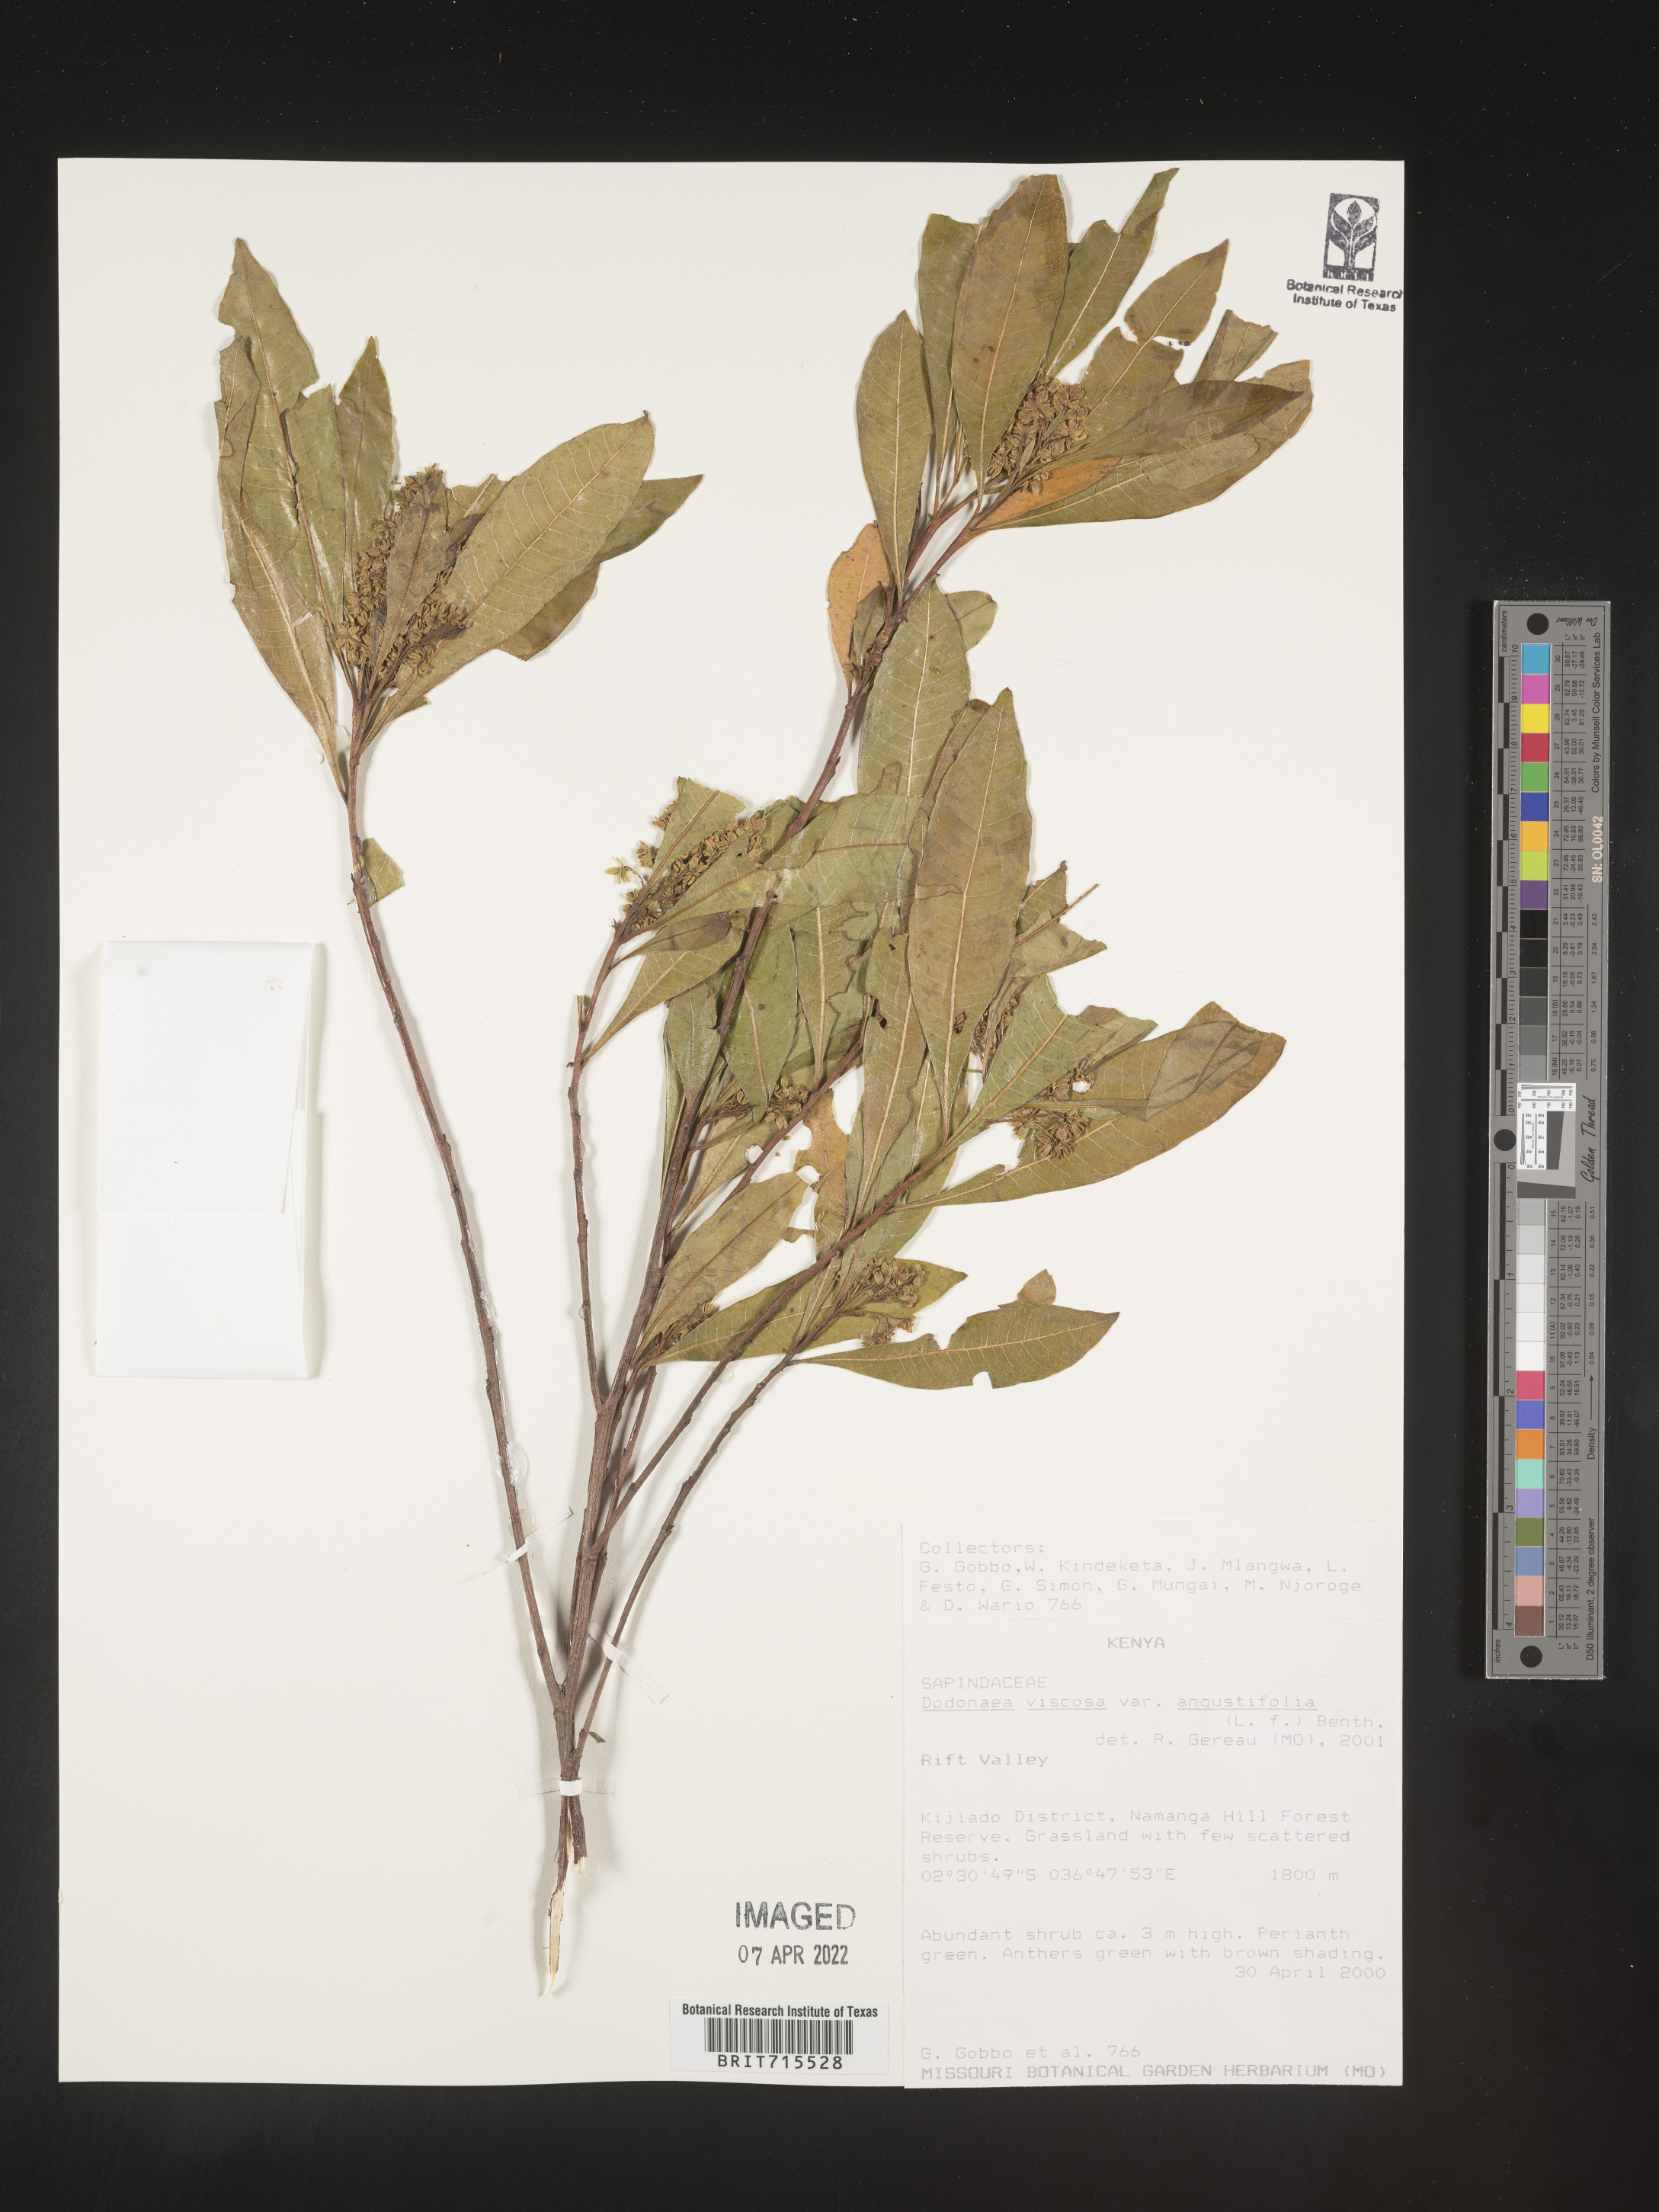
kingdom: Plantae
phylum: Tracheophyta
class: Magnoliopsida
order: Sapindales
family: Sapindaceae
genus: Dodonaea
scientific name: Dodonaea viscosa
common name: Hopbush
